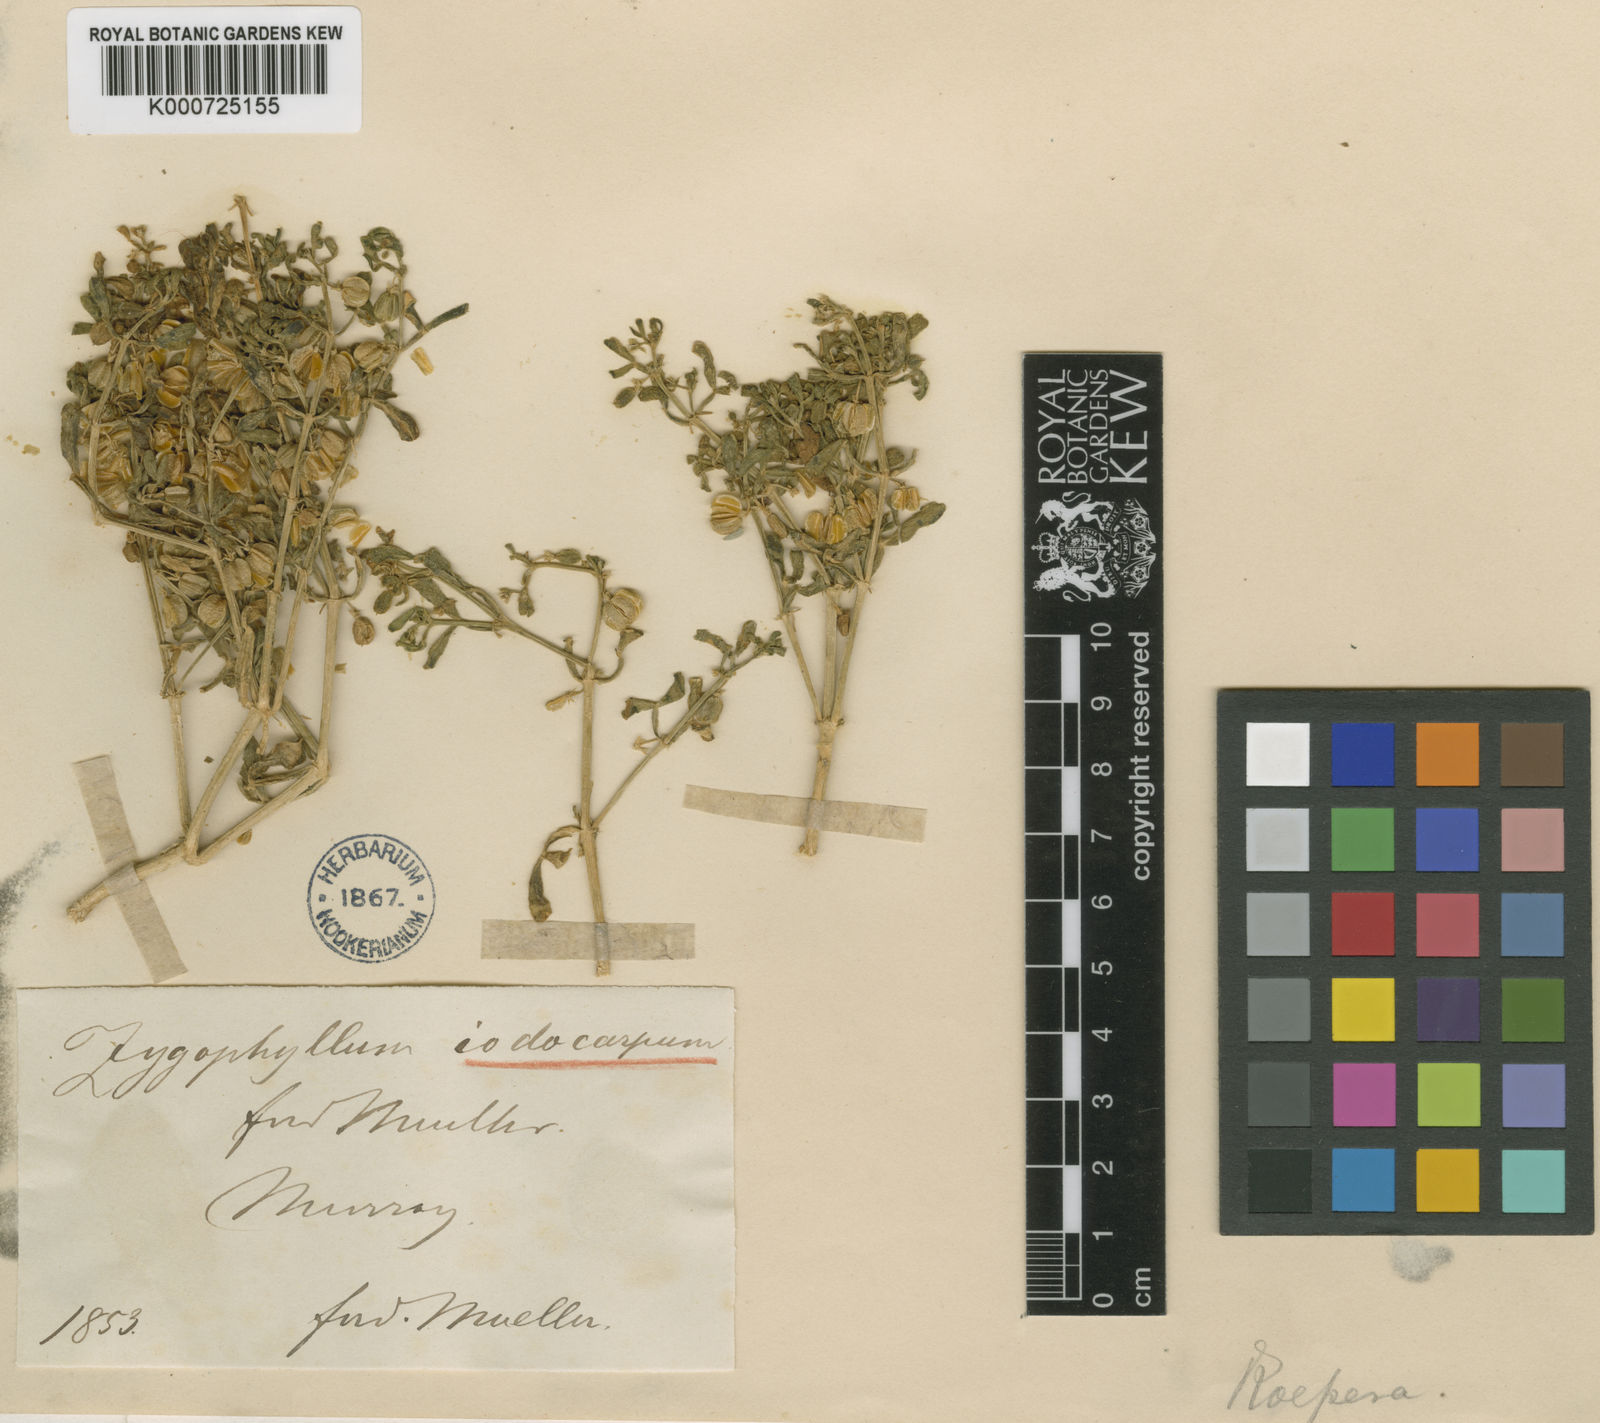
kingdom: Plantae
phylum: Tracheophyta
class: Magnoliopsida
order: Zygophyllales
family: Zygophyllaceae
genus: Roepera
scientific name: Roepera iodocarpa
